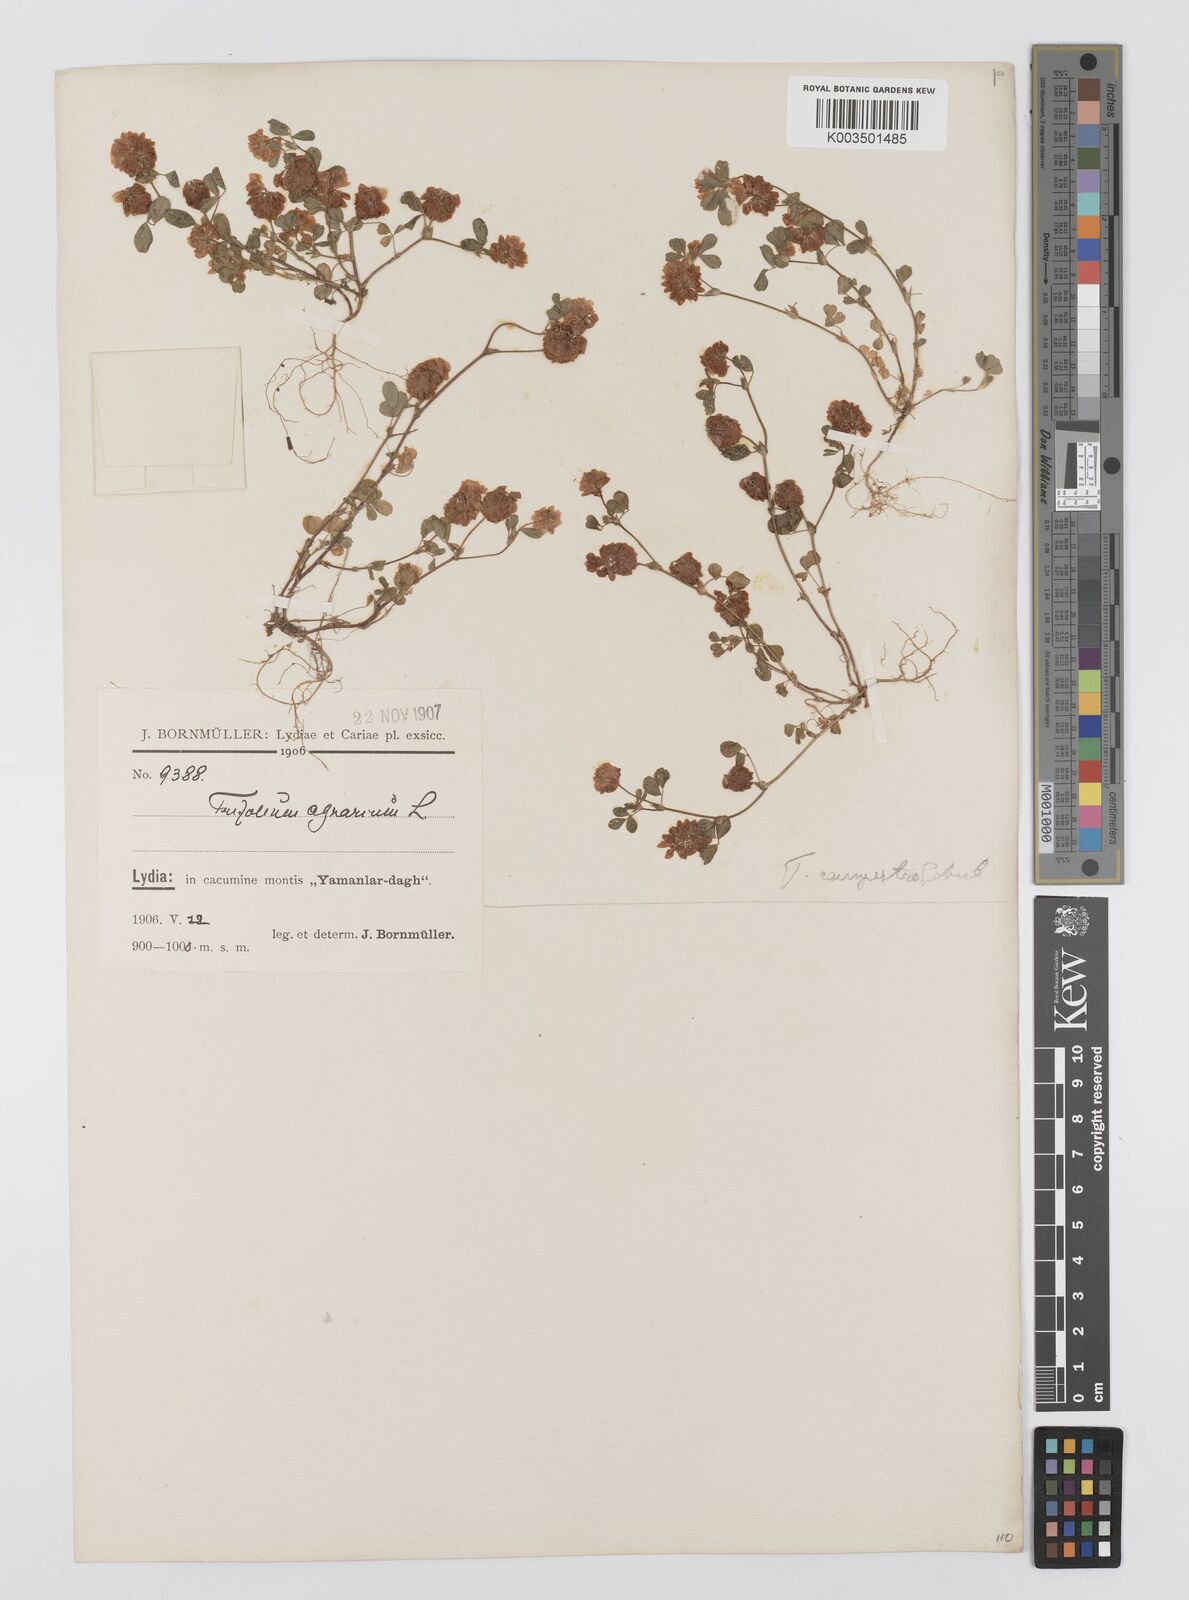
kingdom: Plantae
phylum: Tracheophyta
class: Magnoliopsida
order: Fabales
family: Fabaceae
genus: Trifolium
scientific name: Trifolium campestre
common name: Field clover
